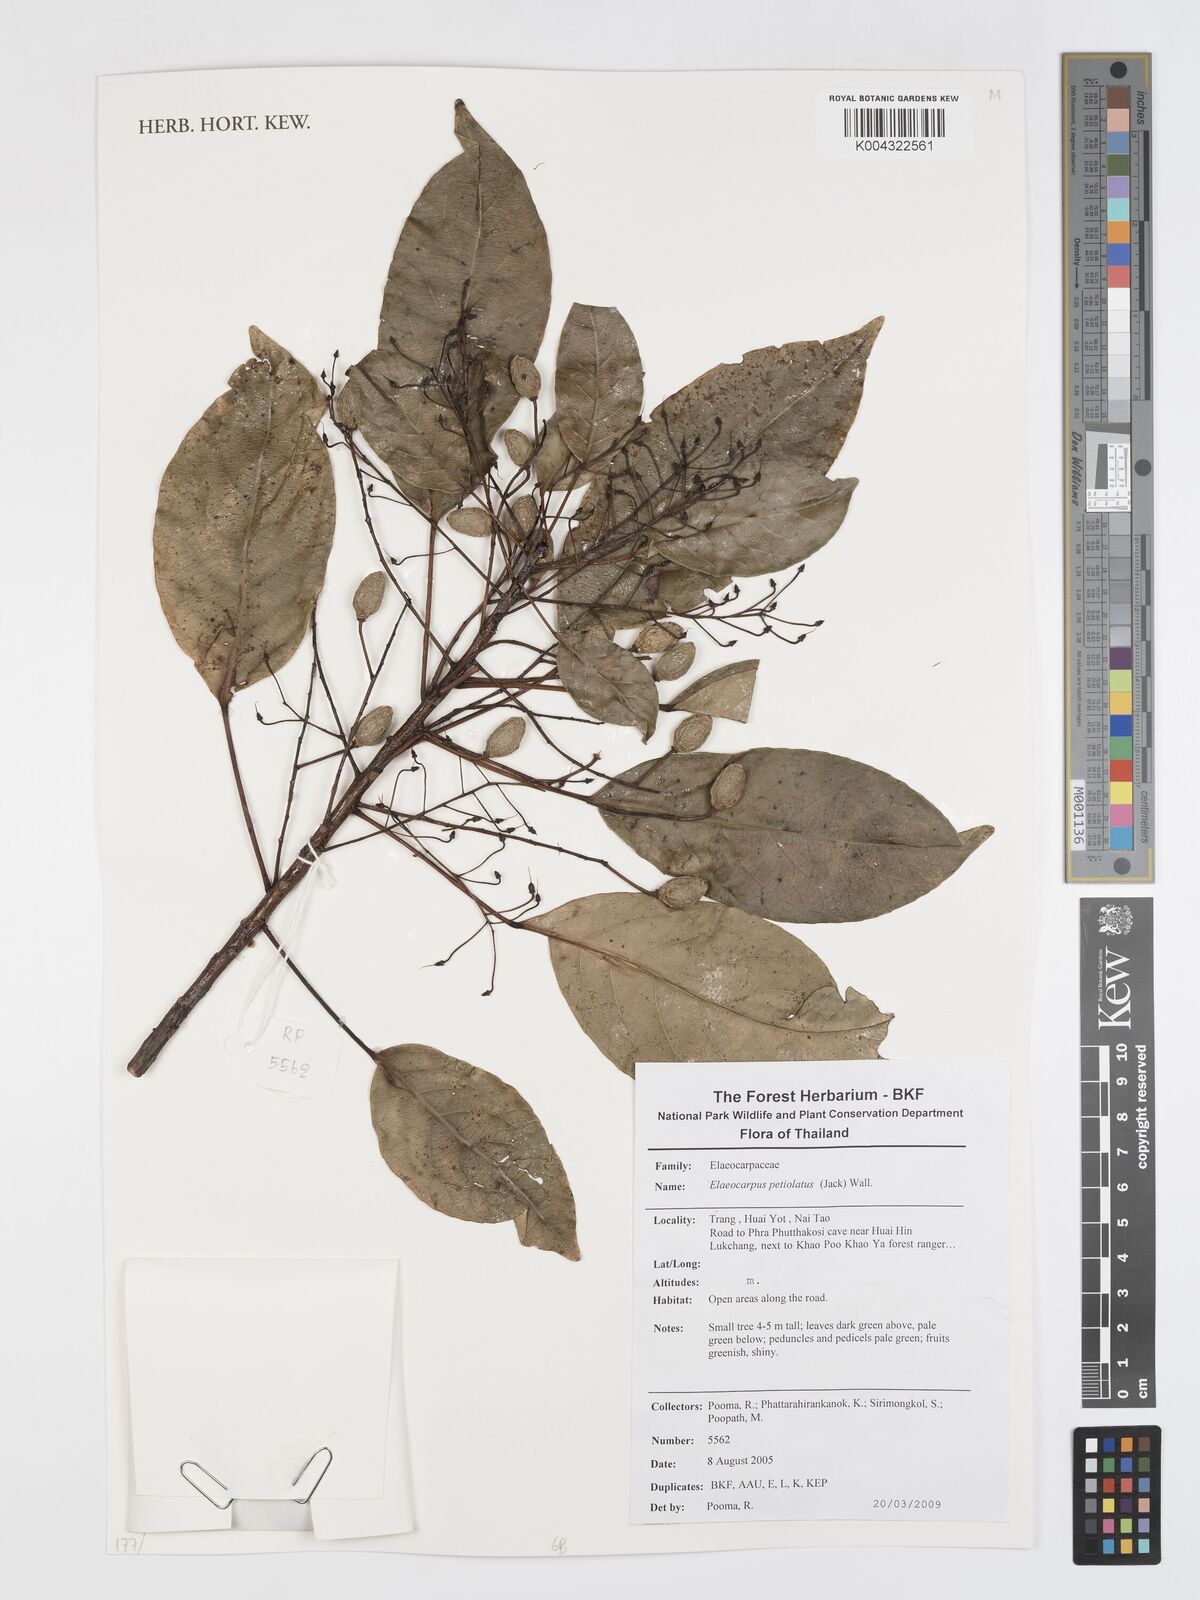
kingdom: Plantae
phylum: Tracheophyta
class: Magnoliopsida
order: Oxalidales
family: Elaeocarpaceae
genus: Elaeocarpus
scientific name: Elaeocarpus petiolatus
